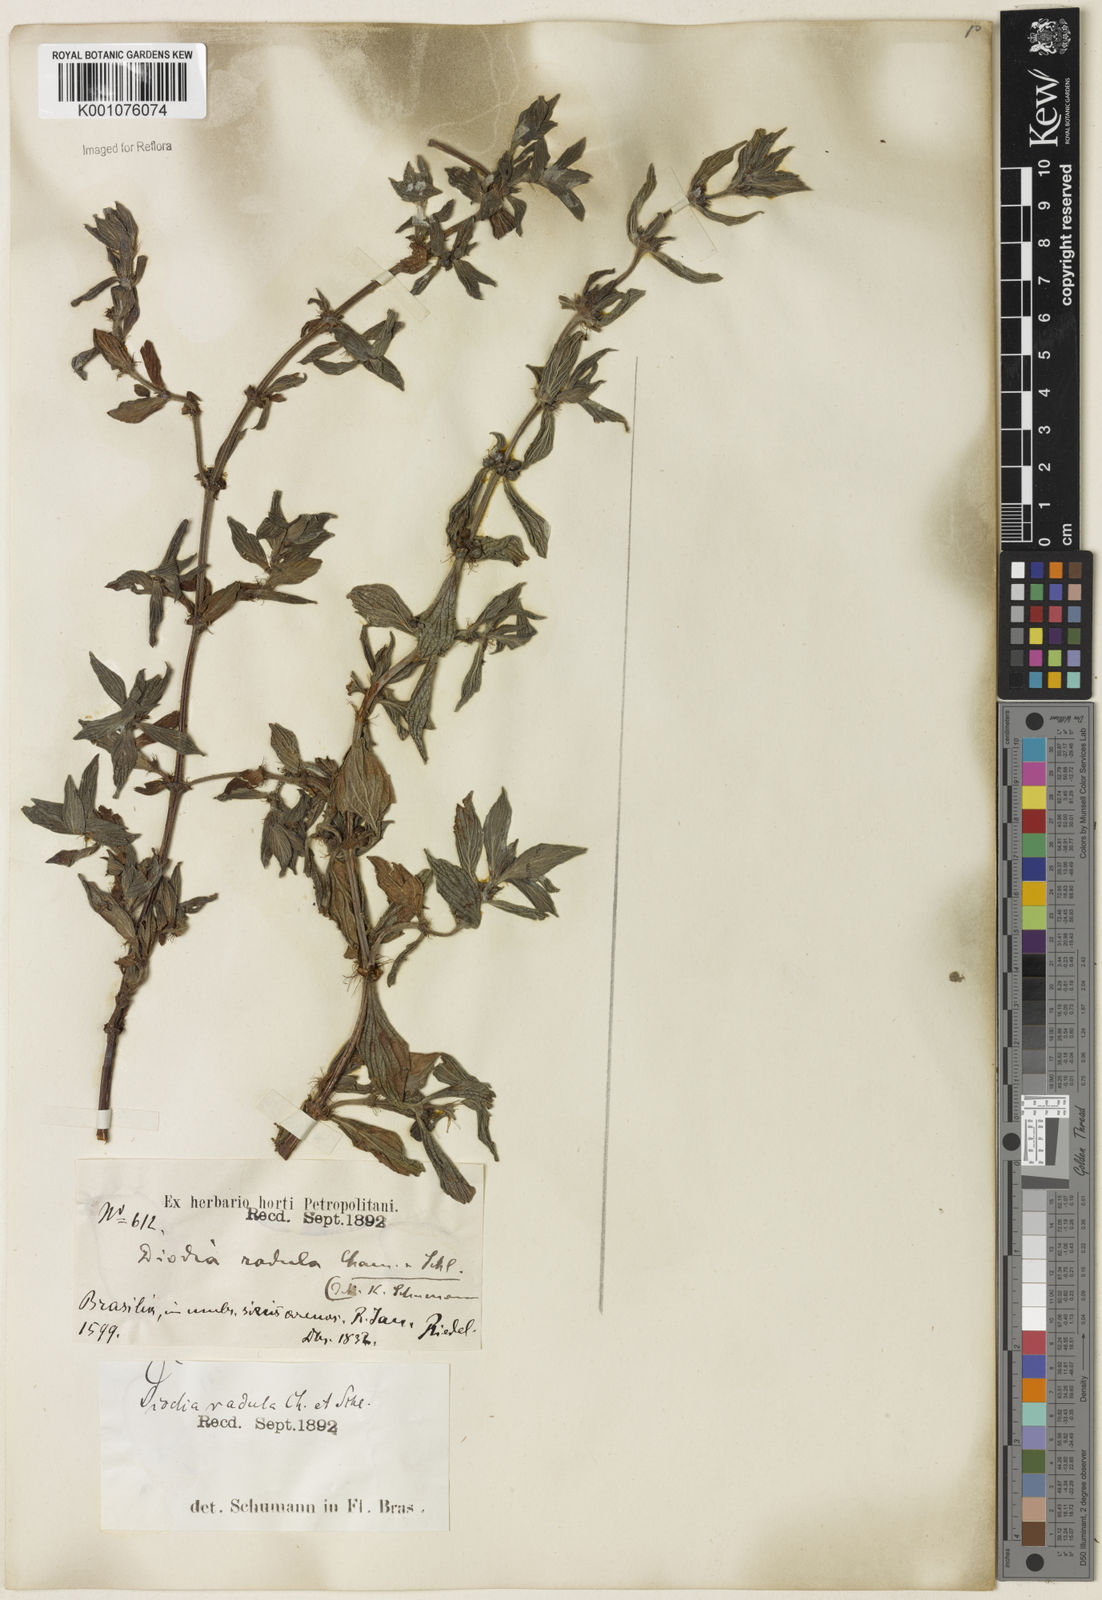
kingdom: Plantae
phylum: Tracheophyta
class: Magnoliopsida
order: Gentianales
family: Rubiaceae
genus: Hexasepalum
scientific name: Hexasepalum radulum
